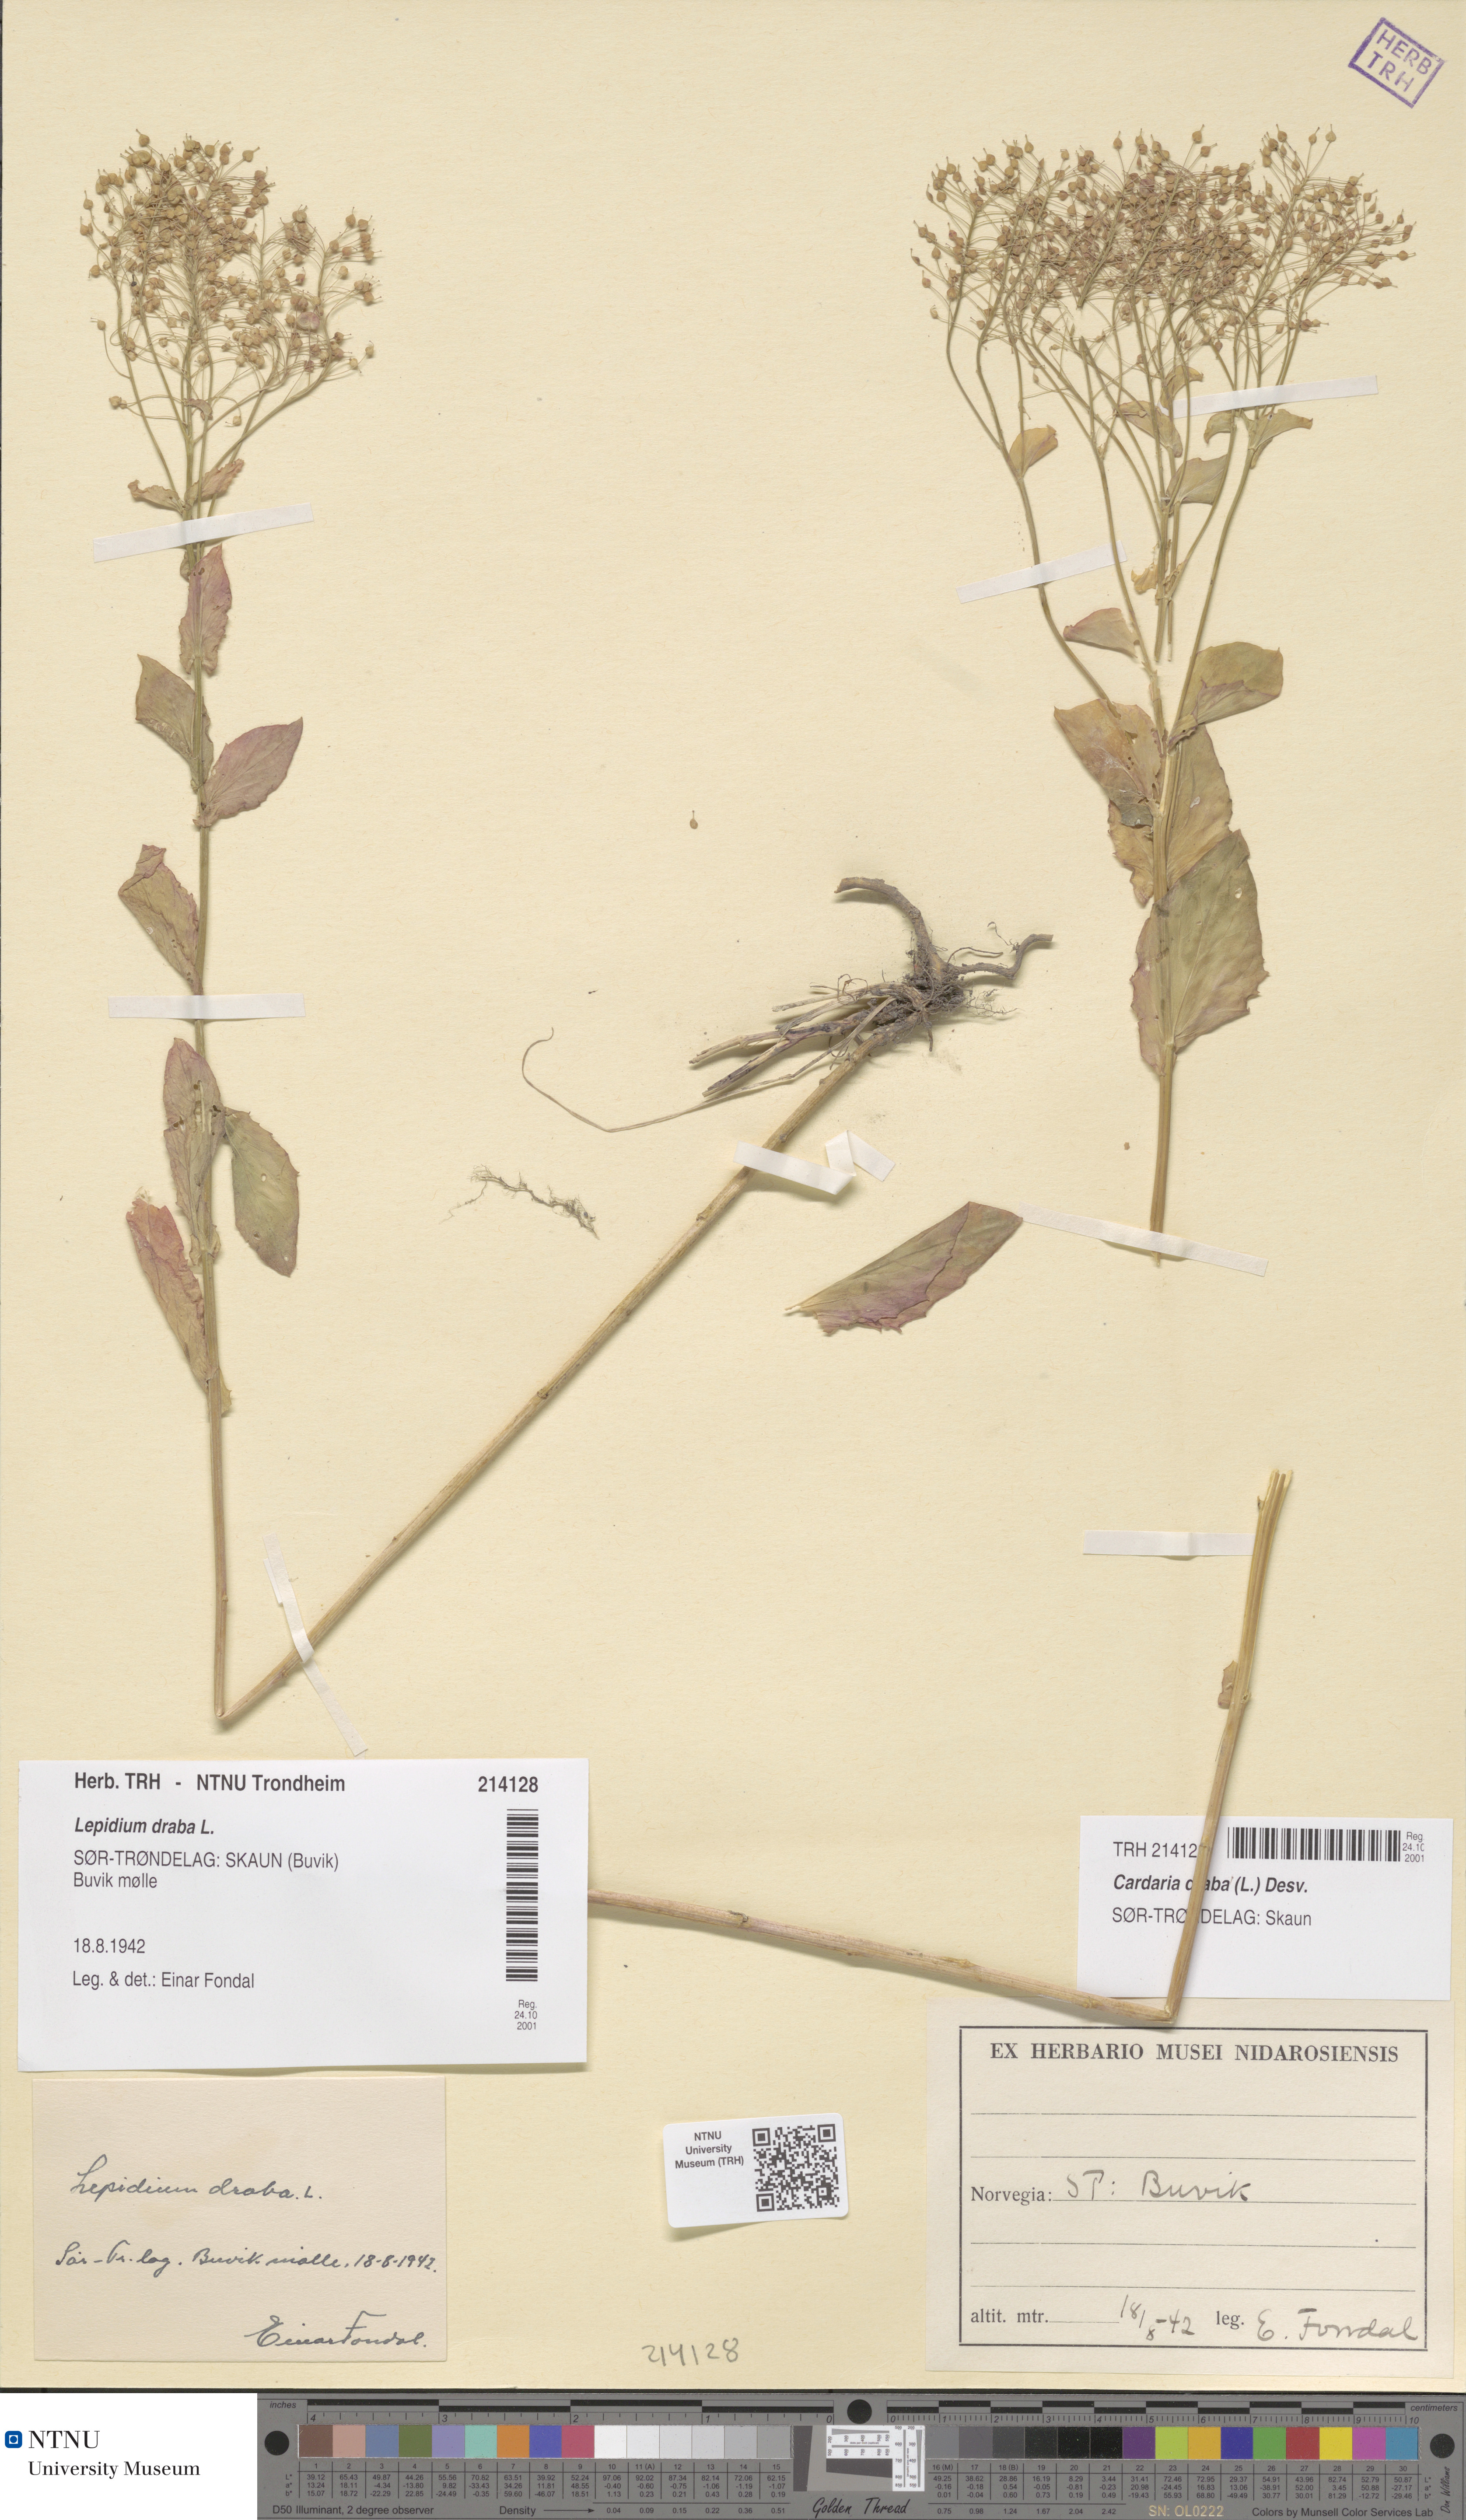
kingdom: Plantae
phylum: Tracheophyta
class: Magnoliopsida
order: Brassicales
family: Brassicaceae
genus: Lepidium
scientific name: Lepidium draba
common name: Hoary cress
